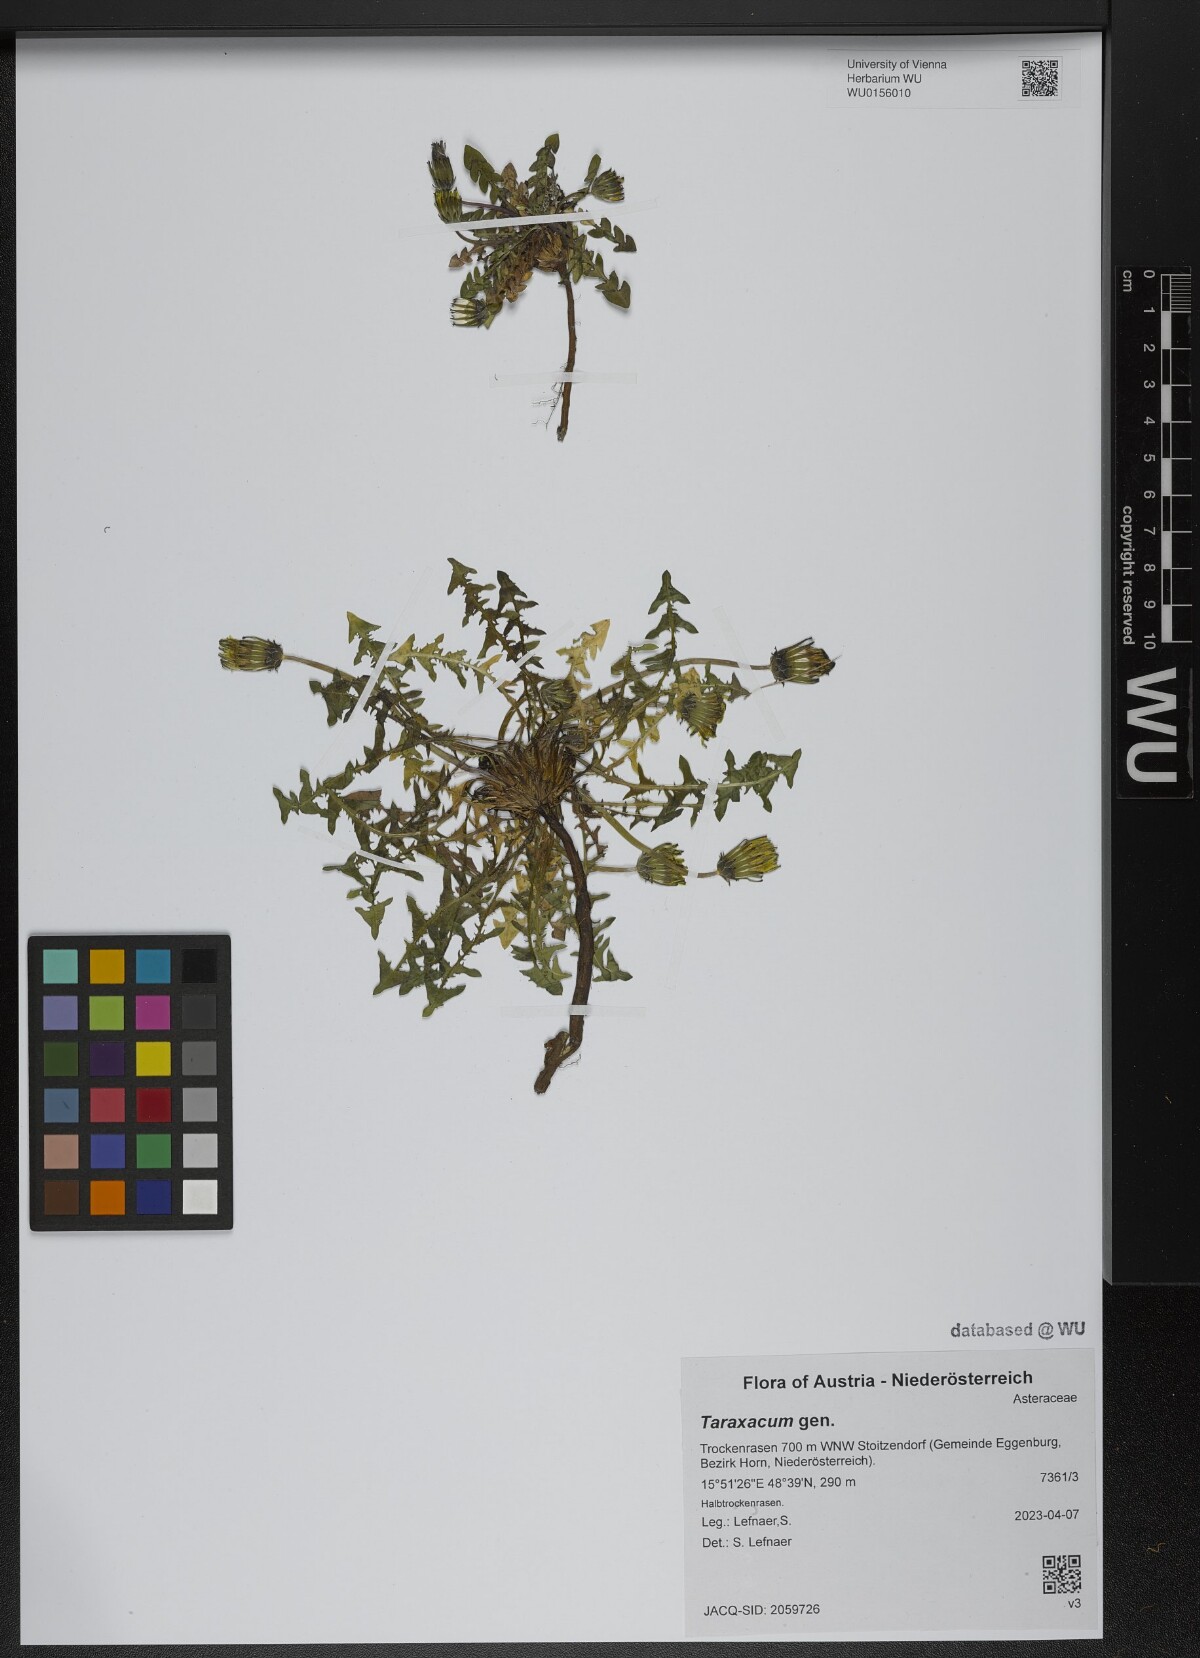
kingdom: Plantae
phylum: Tracheophyta
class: Magnoliopsida
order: Asterales
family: Asteraceae
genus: Taraxacum
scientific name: Taraxacum
